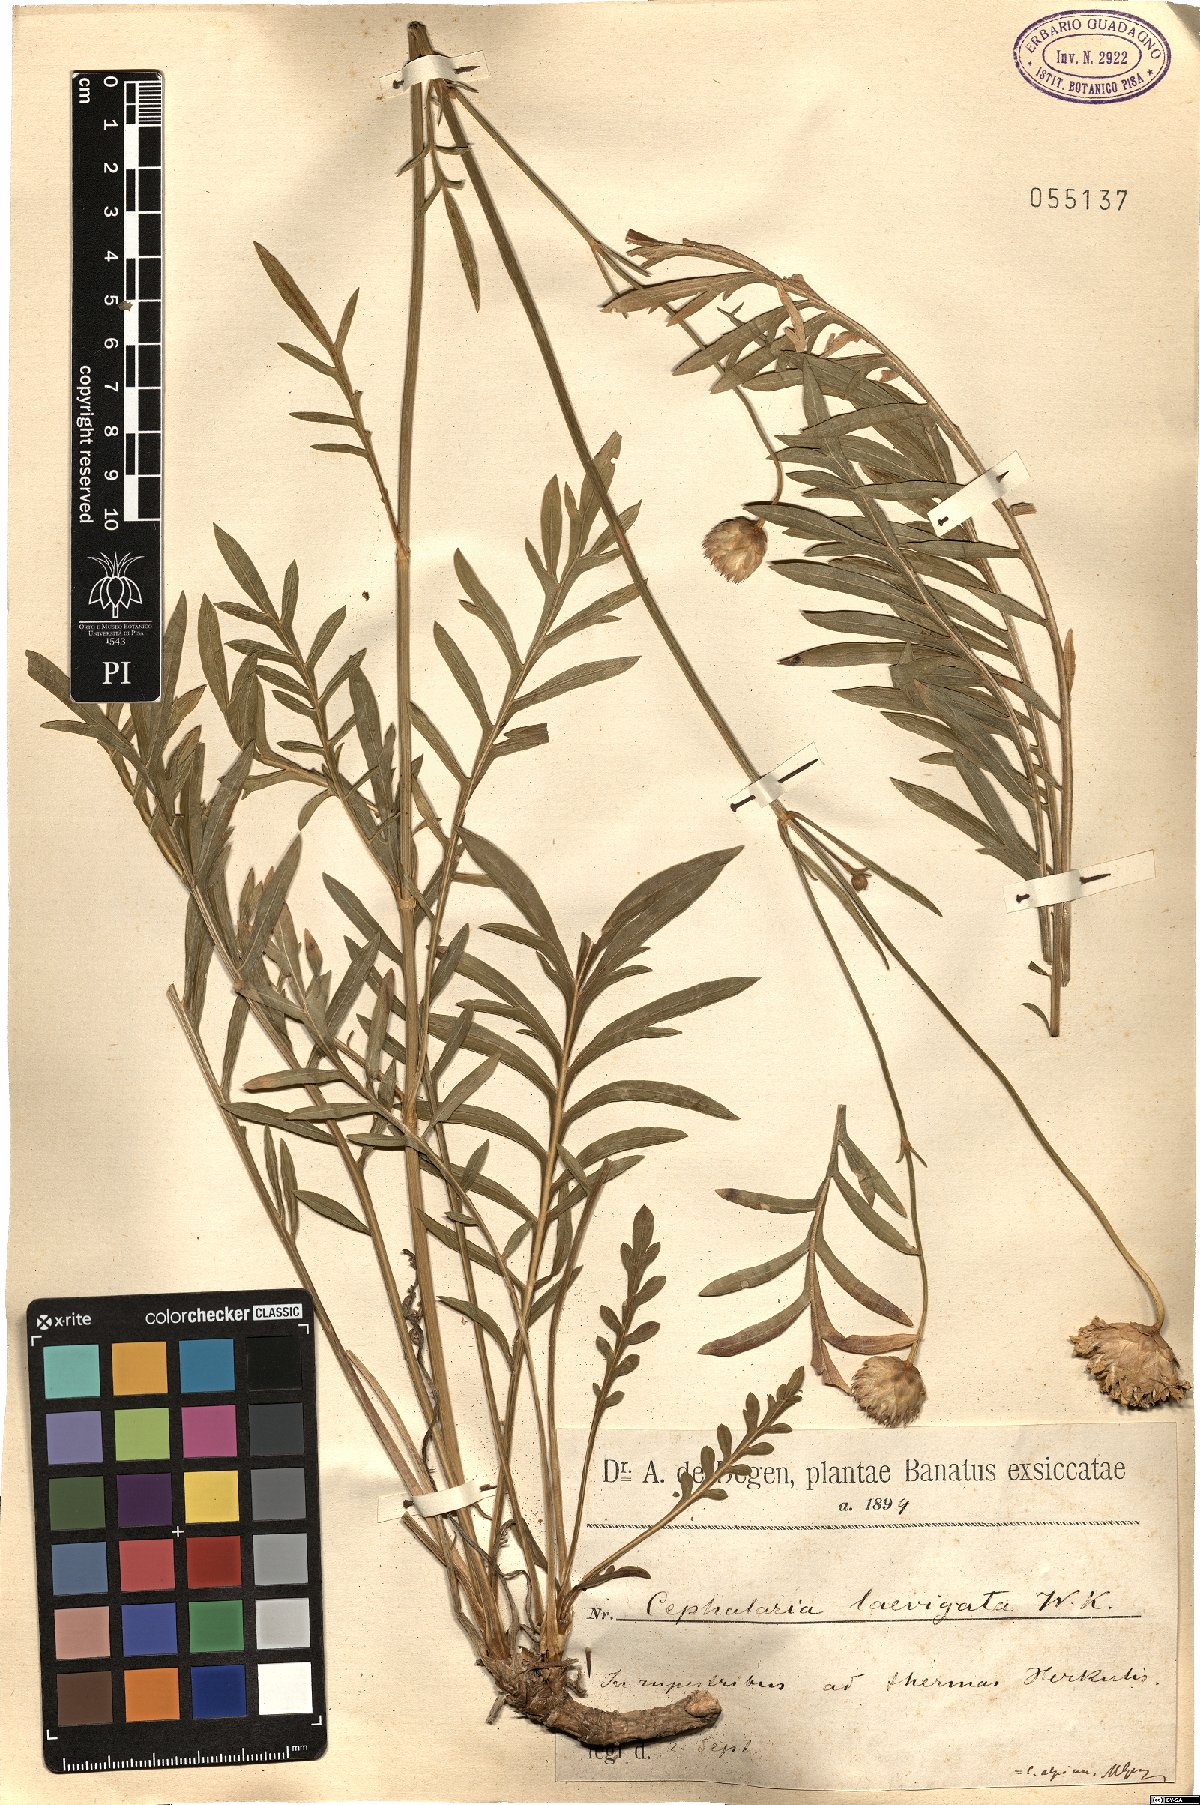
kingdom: Plantae
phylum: Tracheophyta
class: Magnoliopsida
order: Dipsacales
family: Caprifoliaceae
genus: Cephalaria
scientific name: Cephalaria laevigata
